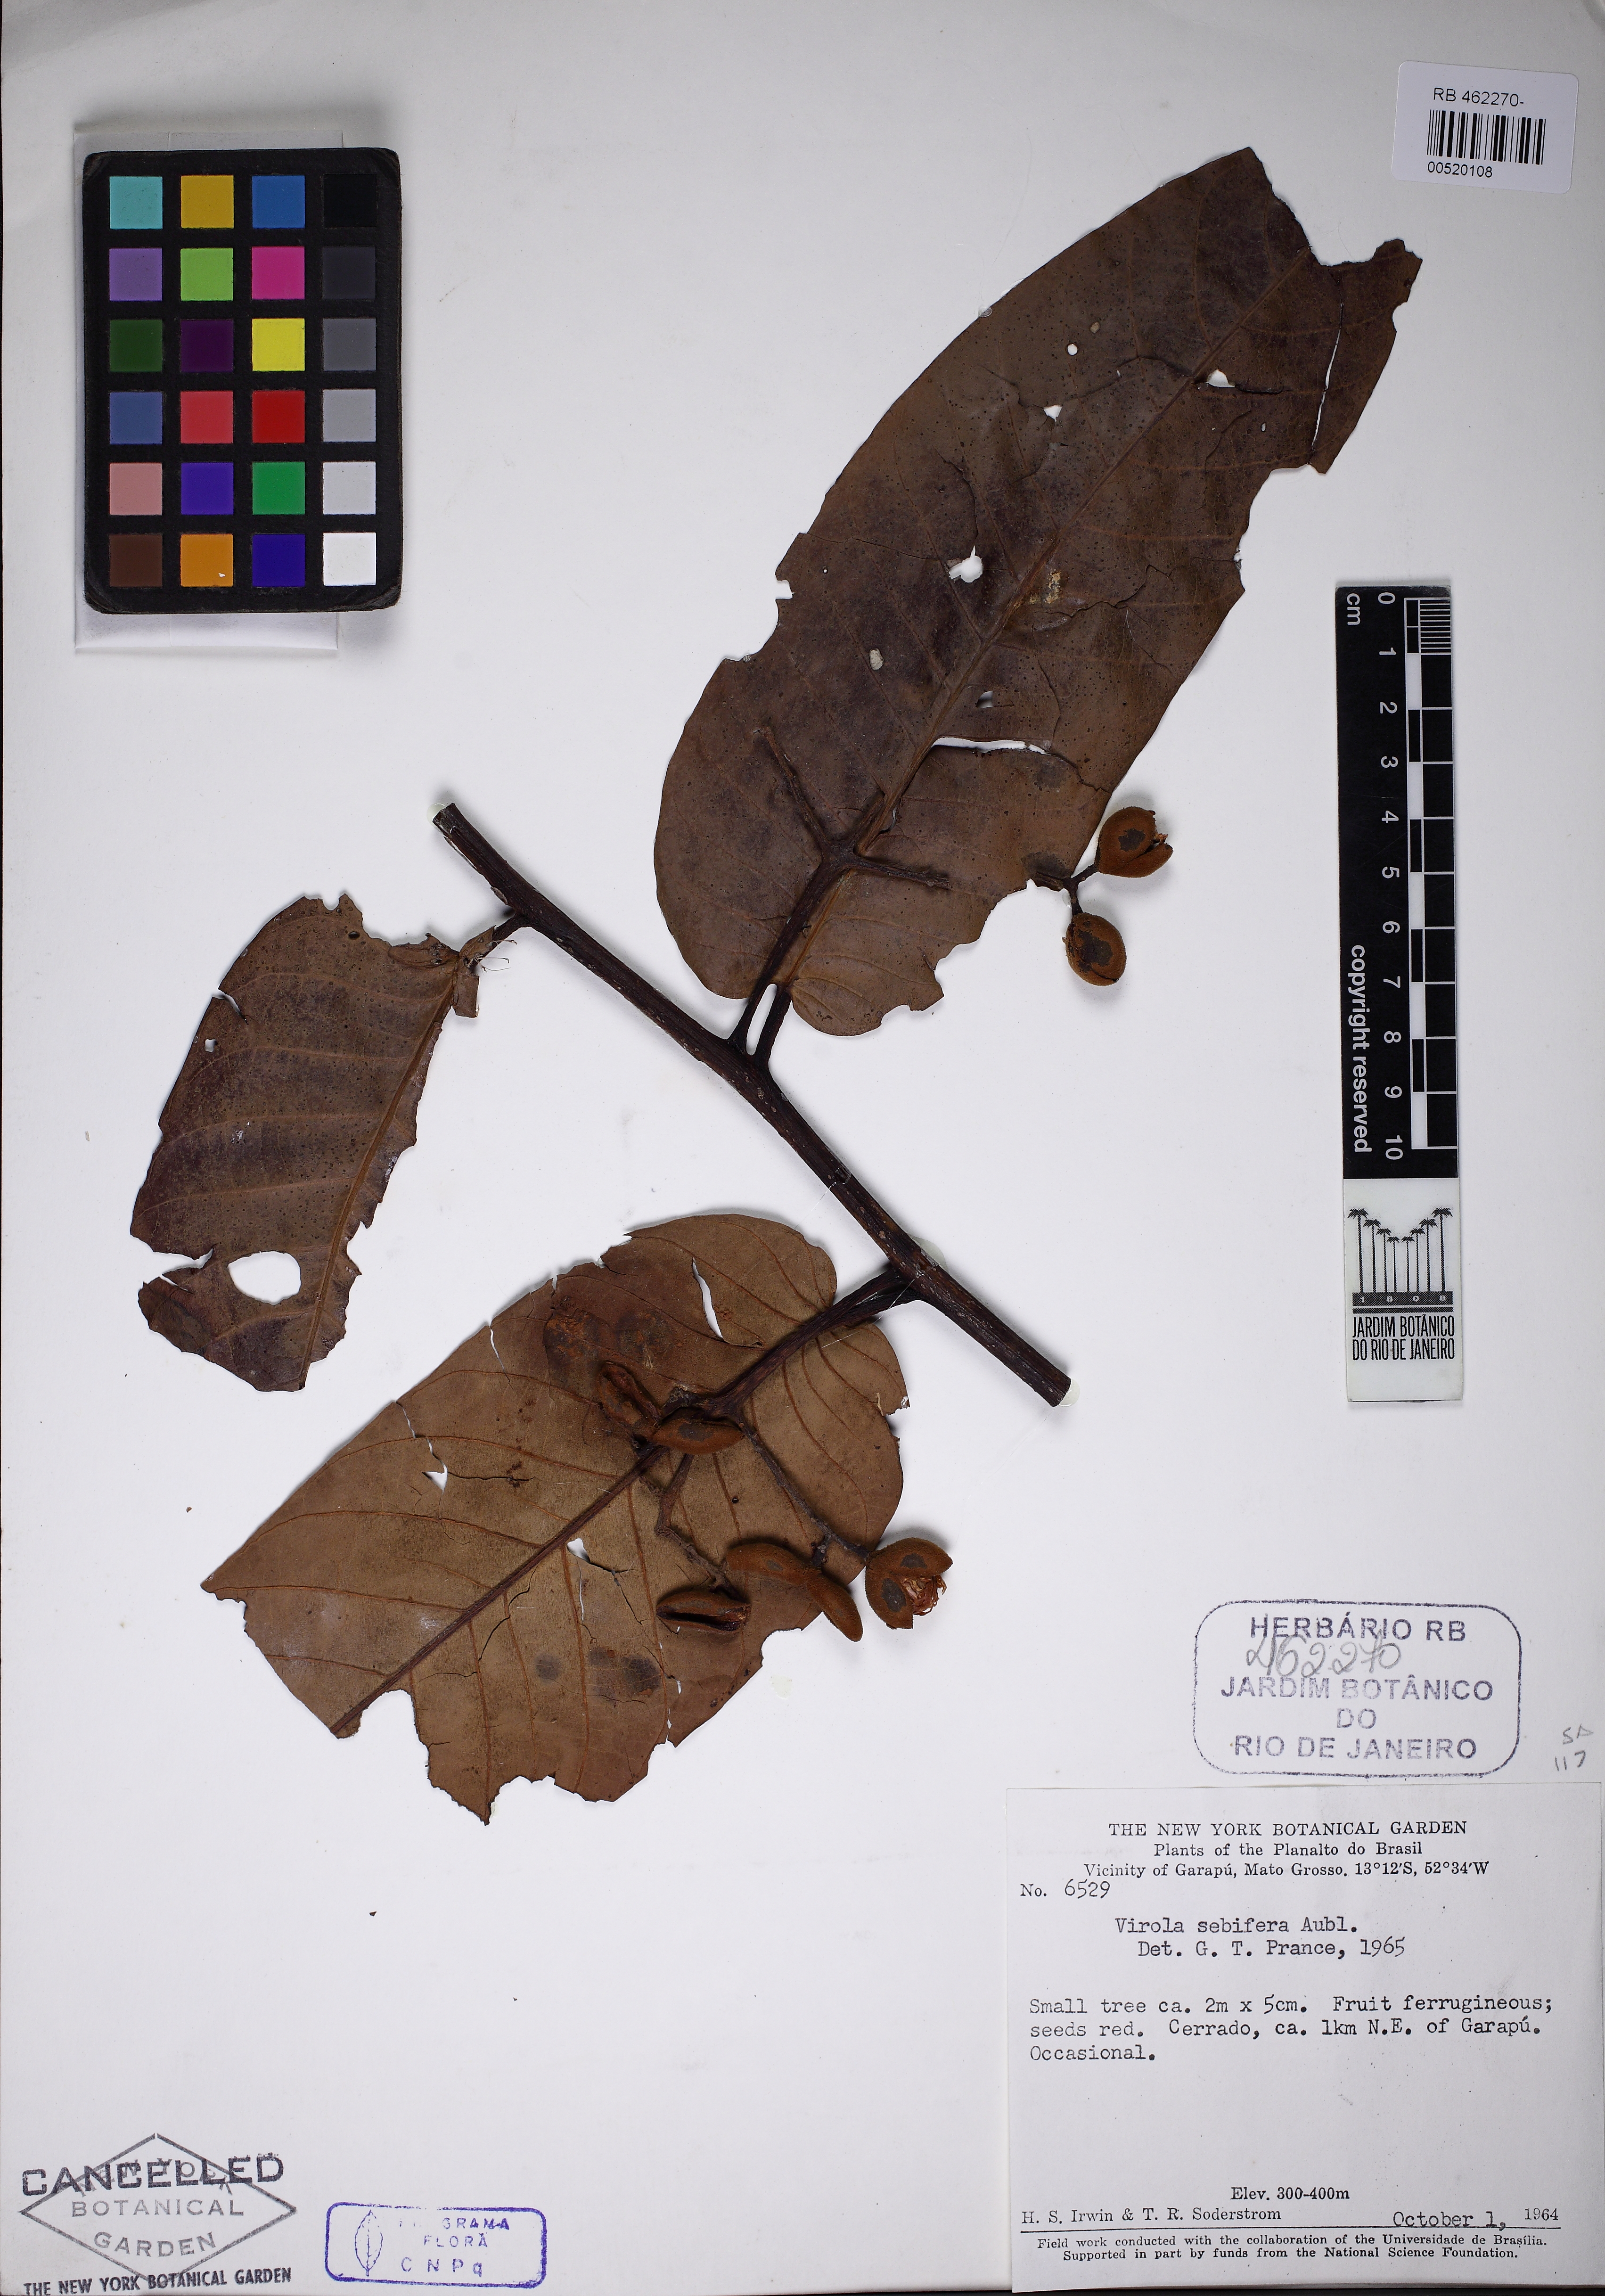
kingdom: Plantae
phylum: Tracheophyta
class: Magnoliopsida
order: Magnoliales
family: Myristicaceae
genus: Virola
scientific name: Virola sebifera
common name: Red ucuuba
